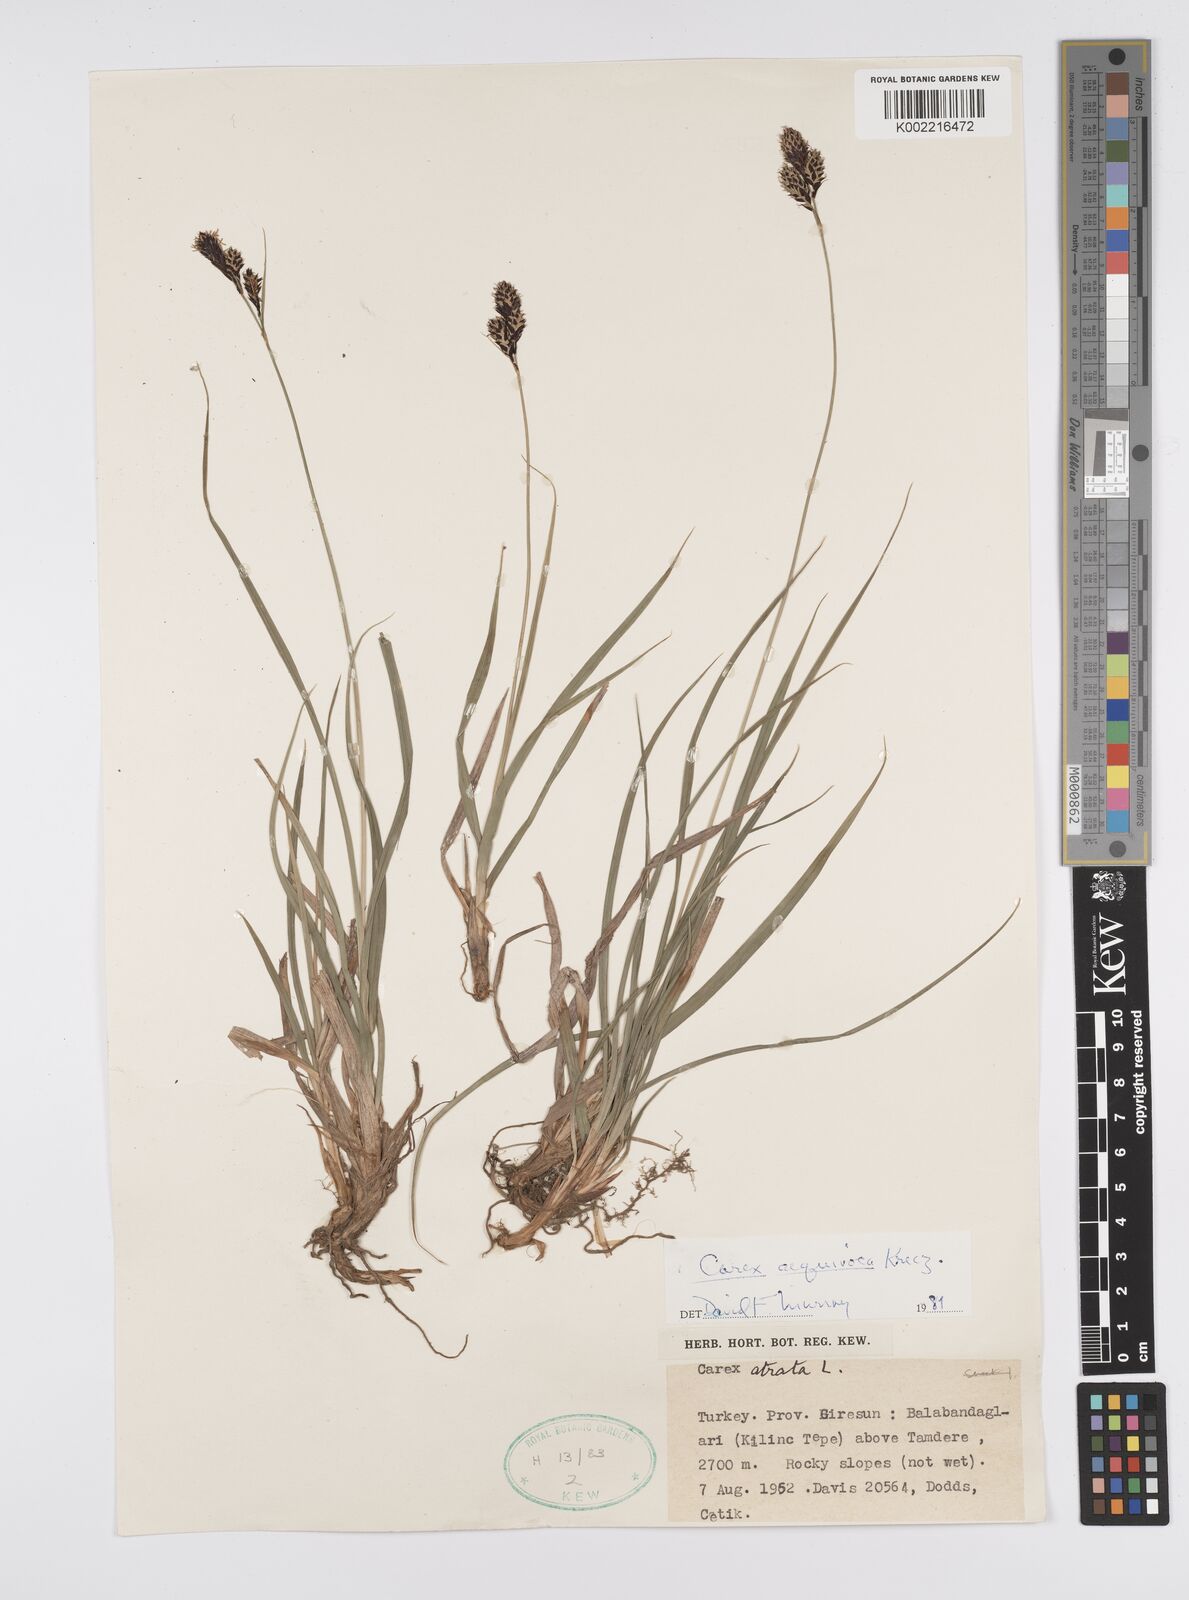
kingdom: Plantae
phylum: Tracheophyta
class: Liliopsida
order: Poales
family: Cyperaceae
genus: Carex
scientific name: Carex atrata
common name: Black alpine sedge
